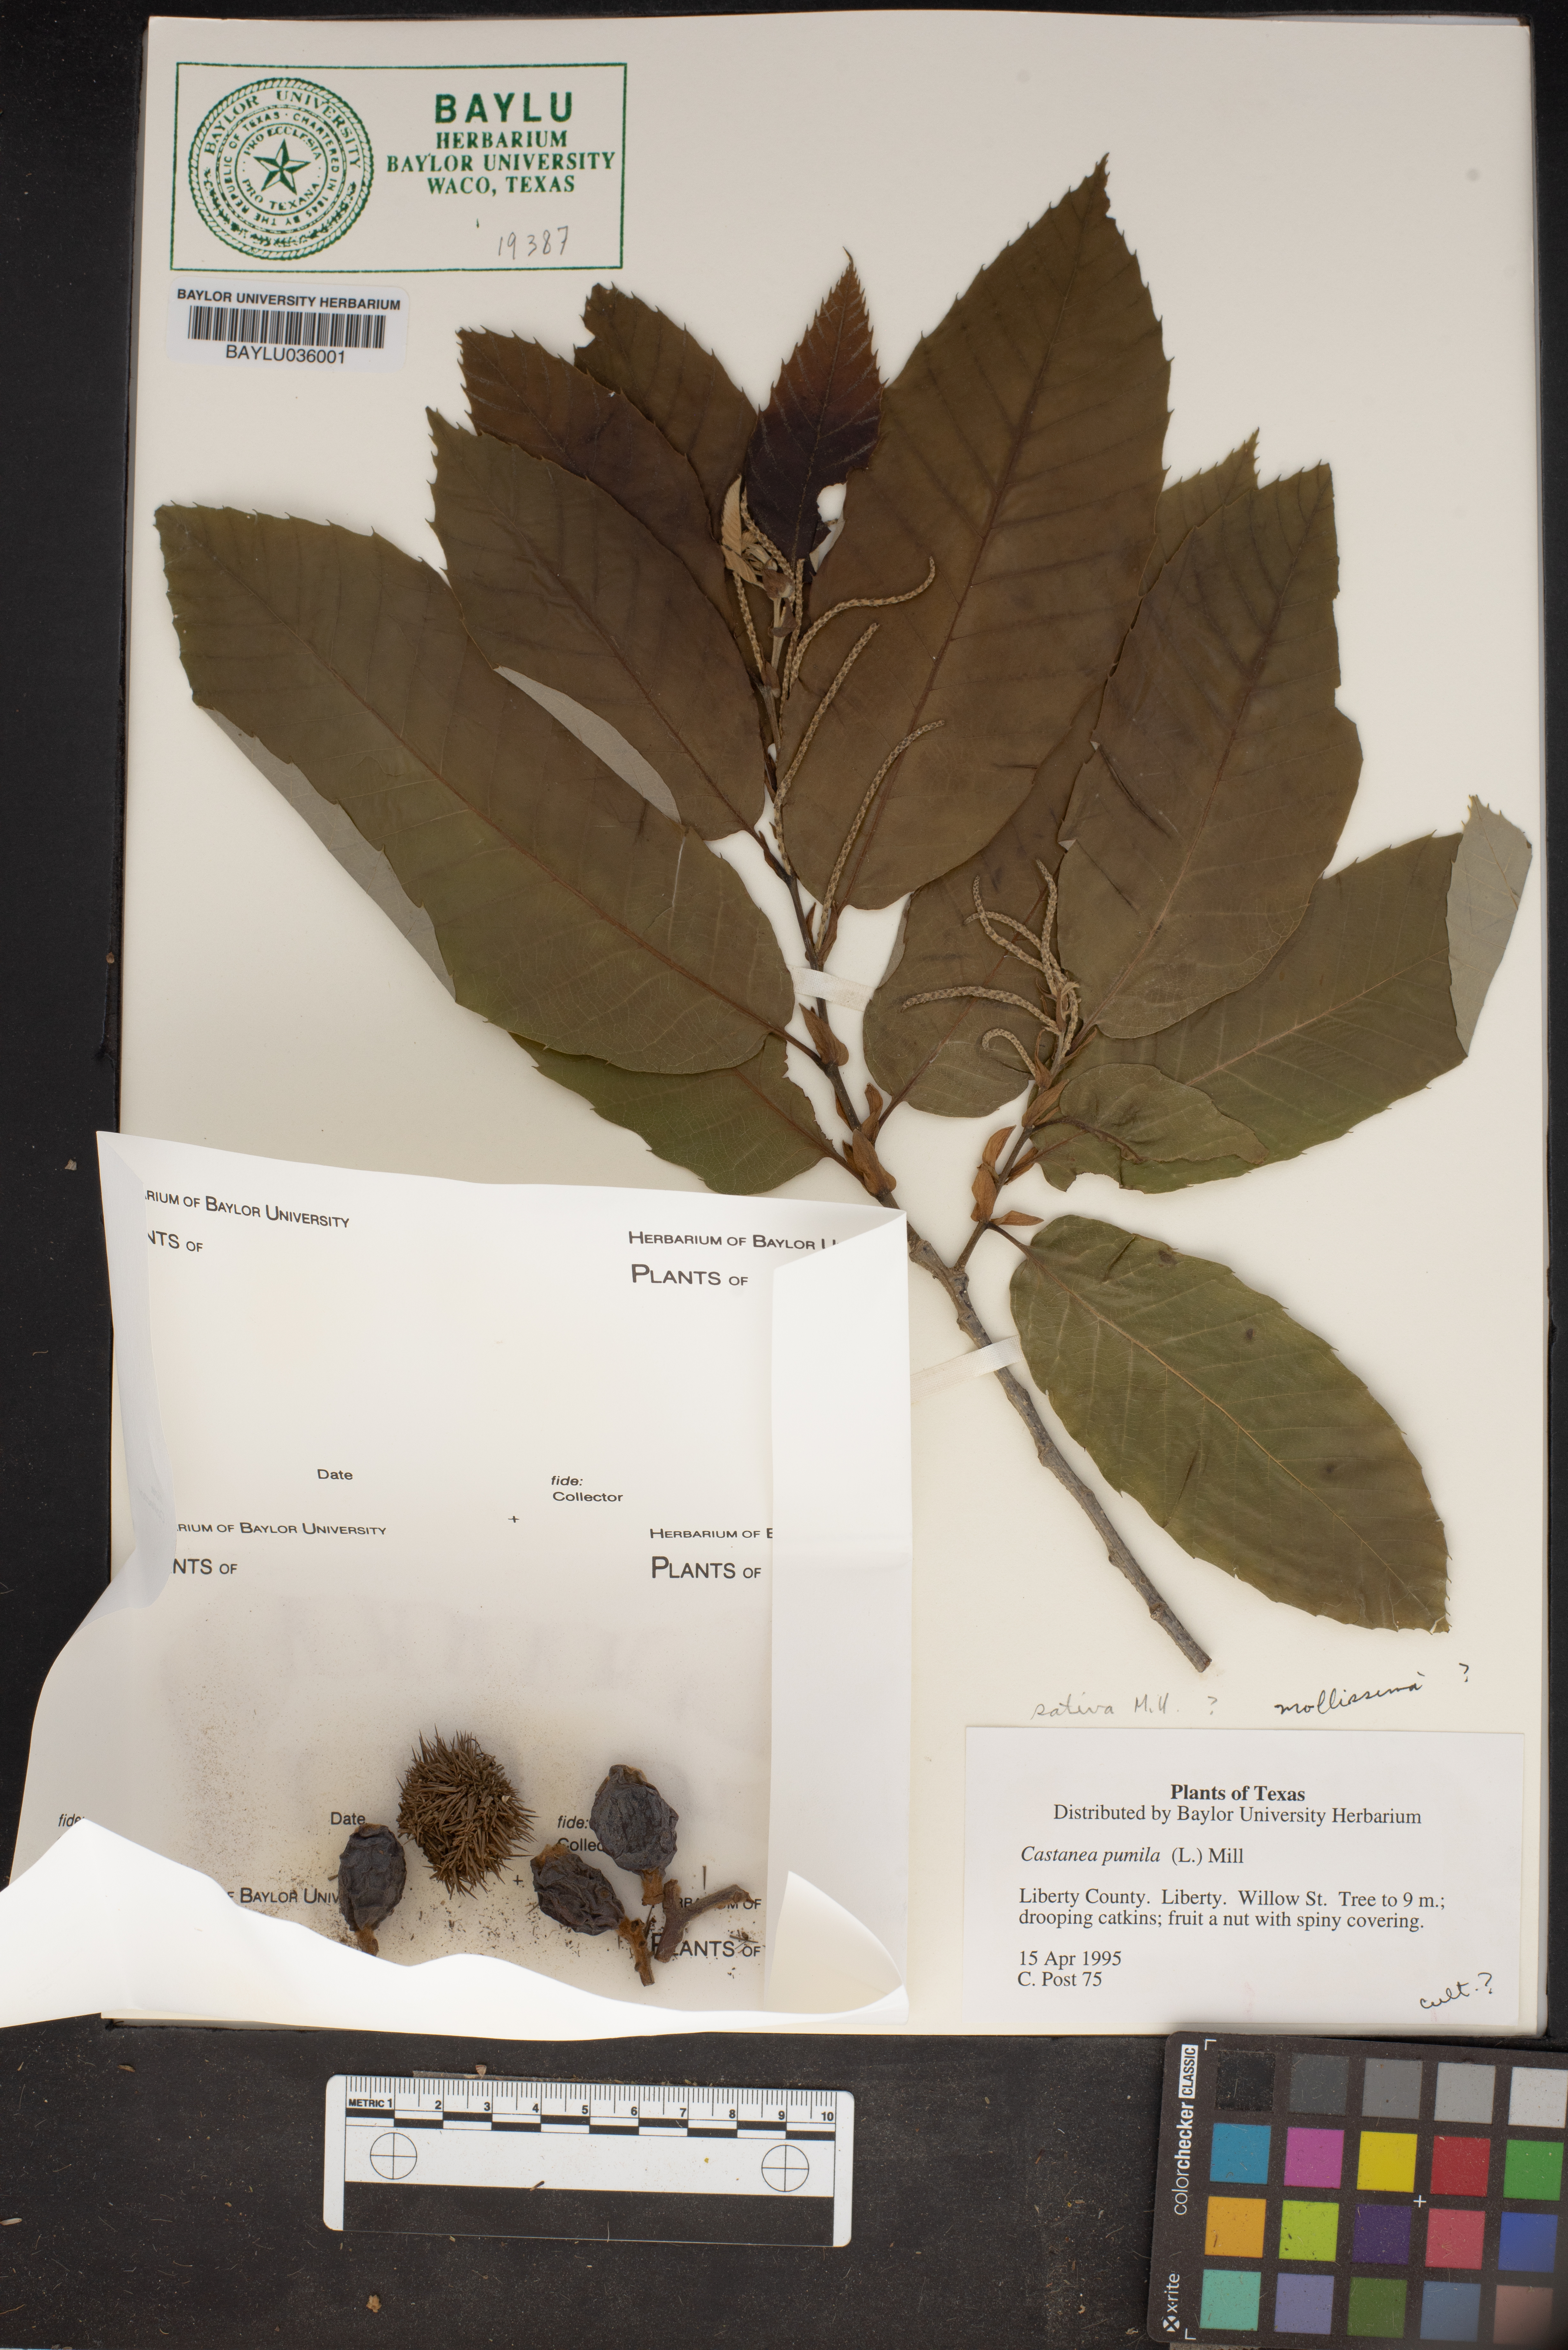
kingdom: Plantae
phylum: Tracheophyta
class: Magnoliopsida
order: Fagales
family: Fagaceae
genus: Castanea
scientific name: Castanea pumila
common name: Chinkapin
